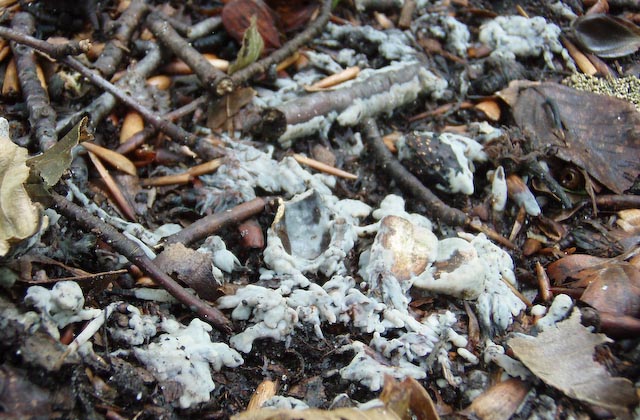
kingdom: Fungi
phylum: Basidiomycota
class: Agaricomycetes
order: Sebacinales
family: Sebacinaceae
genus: Sebacina
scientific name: Sebacina incrustans
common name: krybende bævretalg
